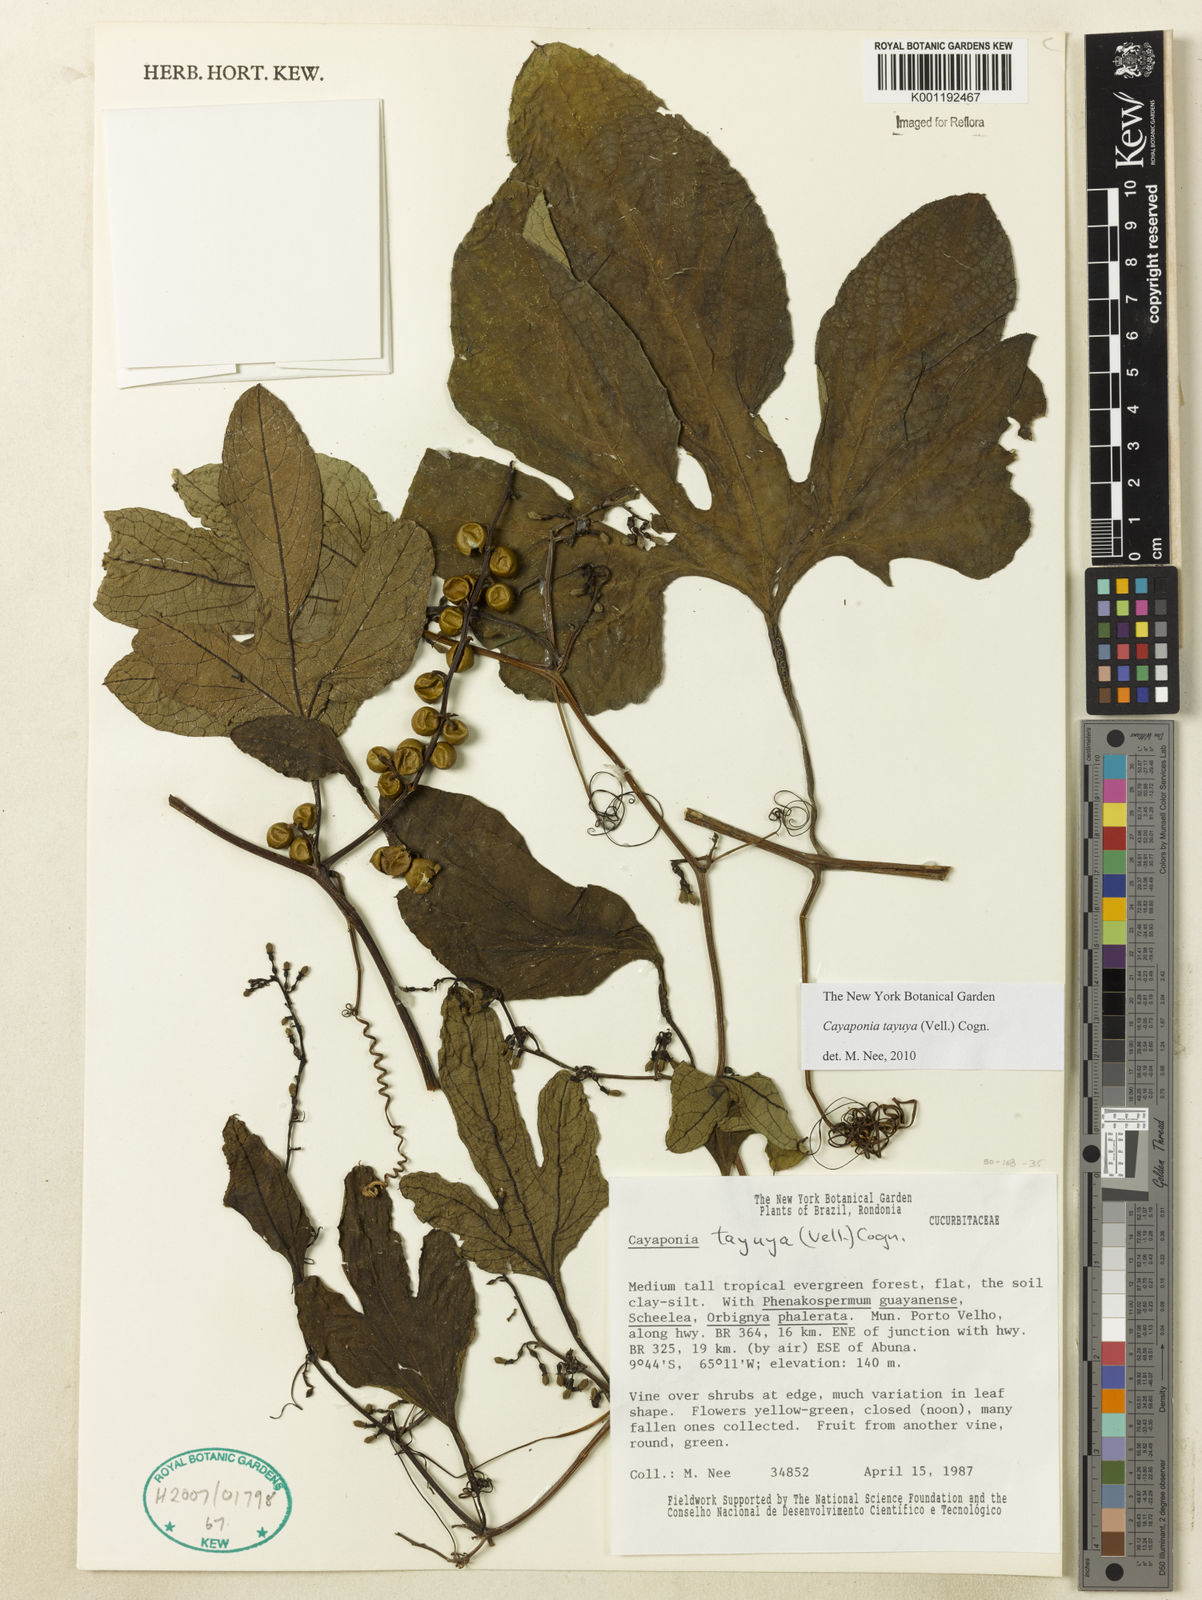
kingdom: Plantae
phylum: Tracheophyta
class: Magnoliopsida
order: Cucurbitales
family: Cucurbitaceae
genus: Cayaponia
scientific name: Cayaponia tayuya
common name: Tayuya
